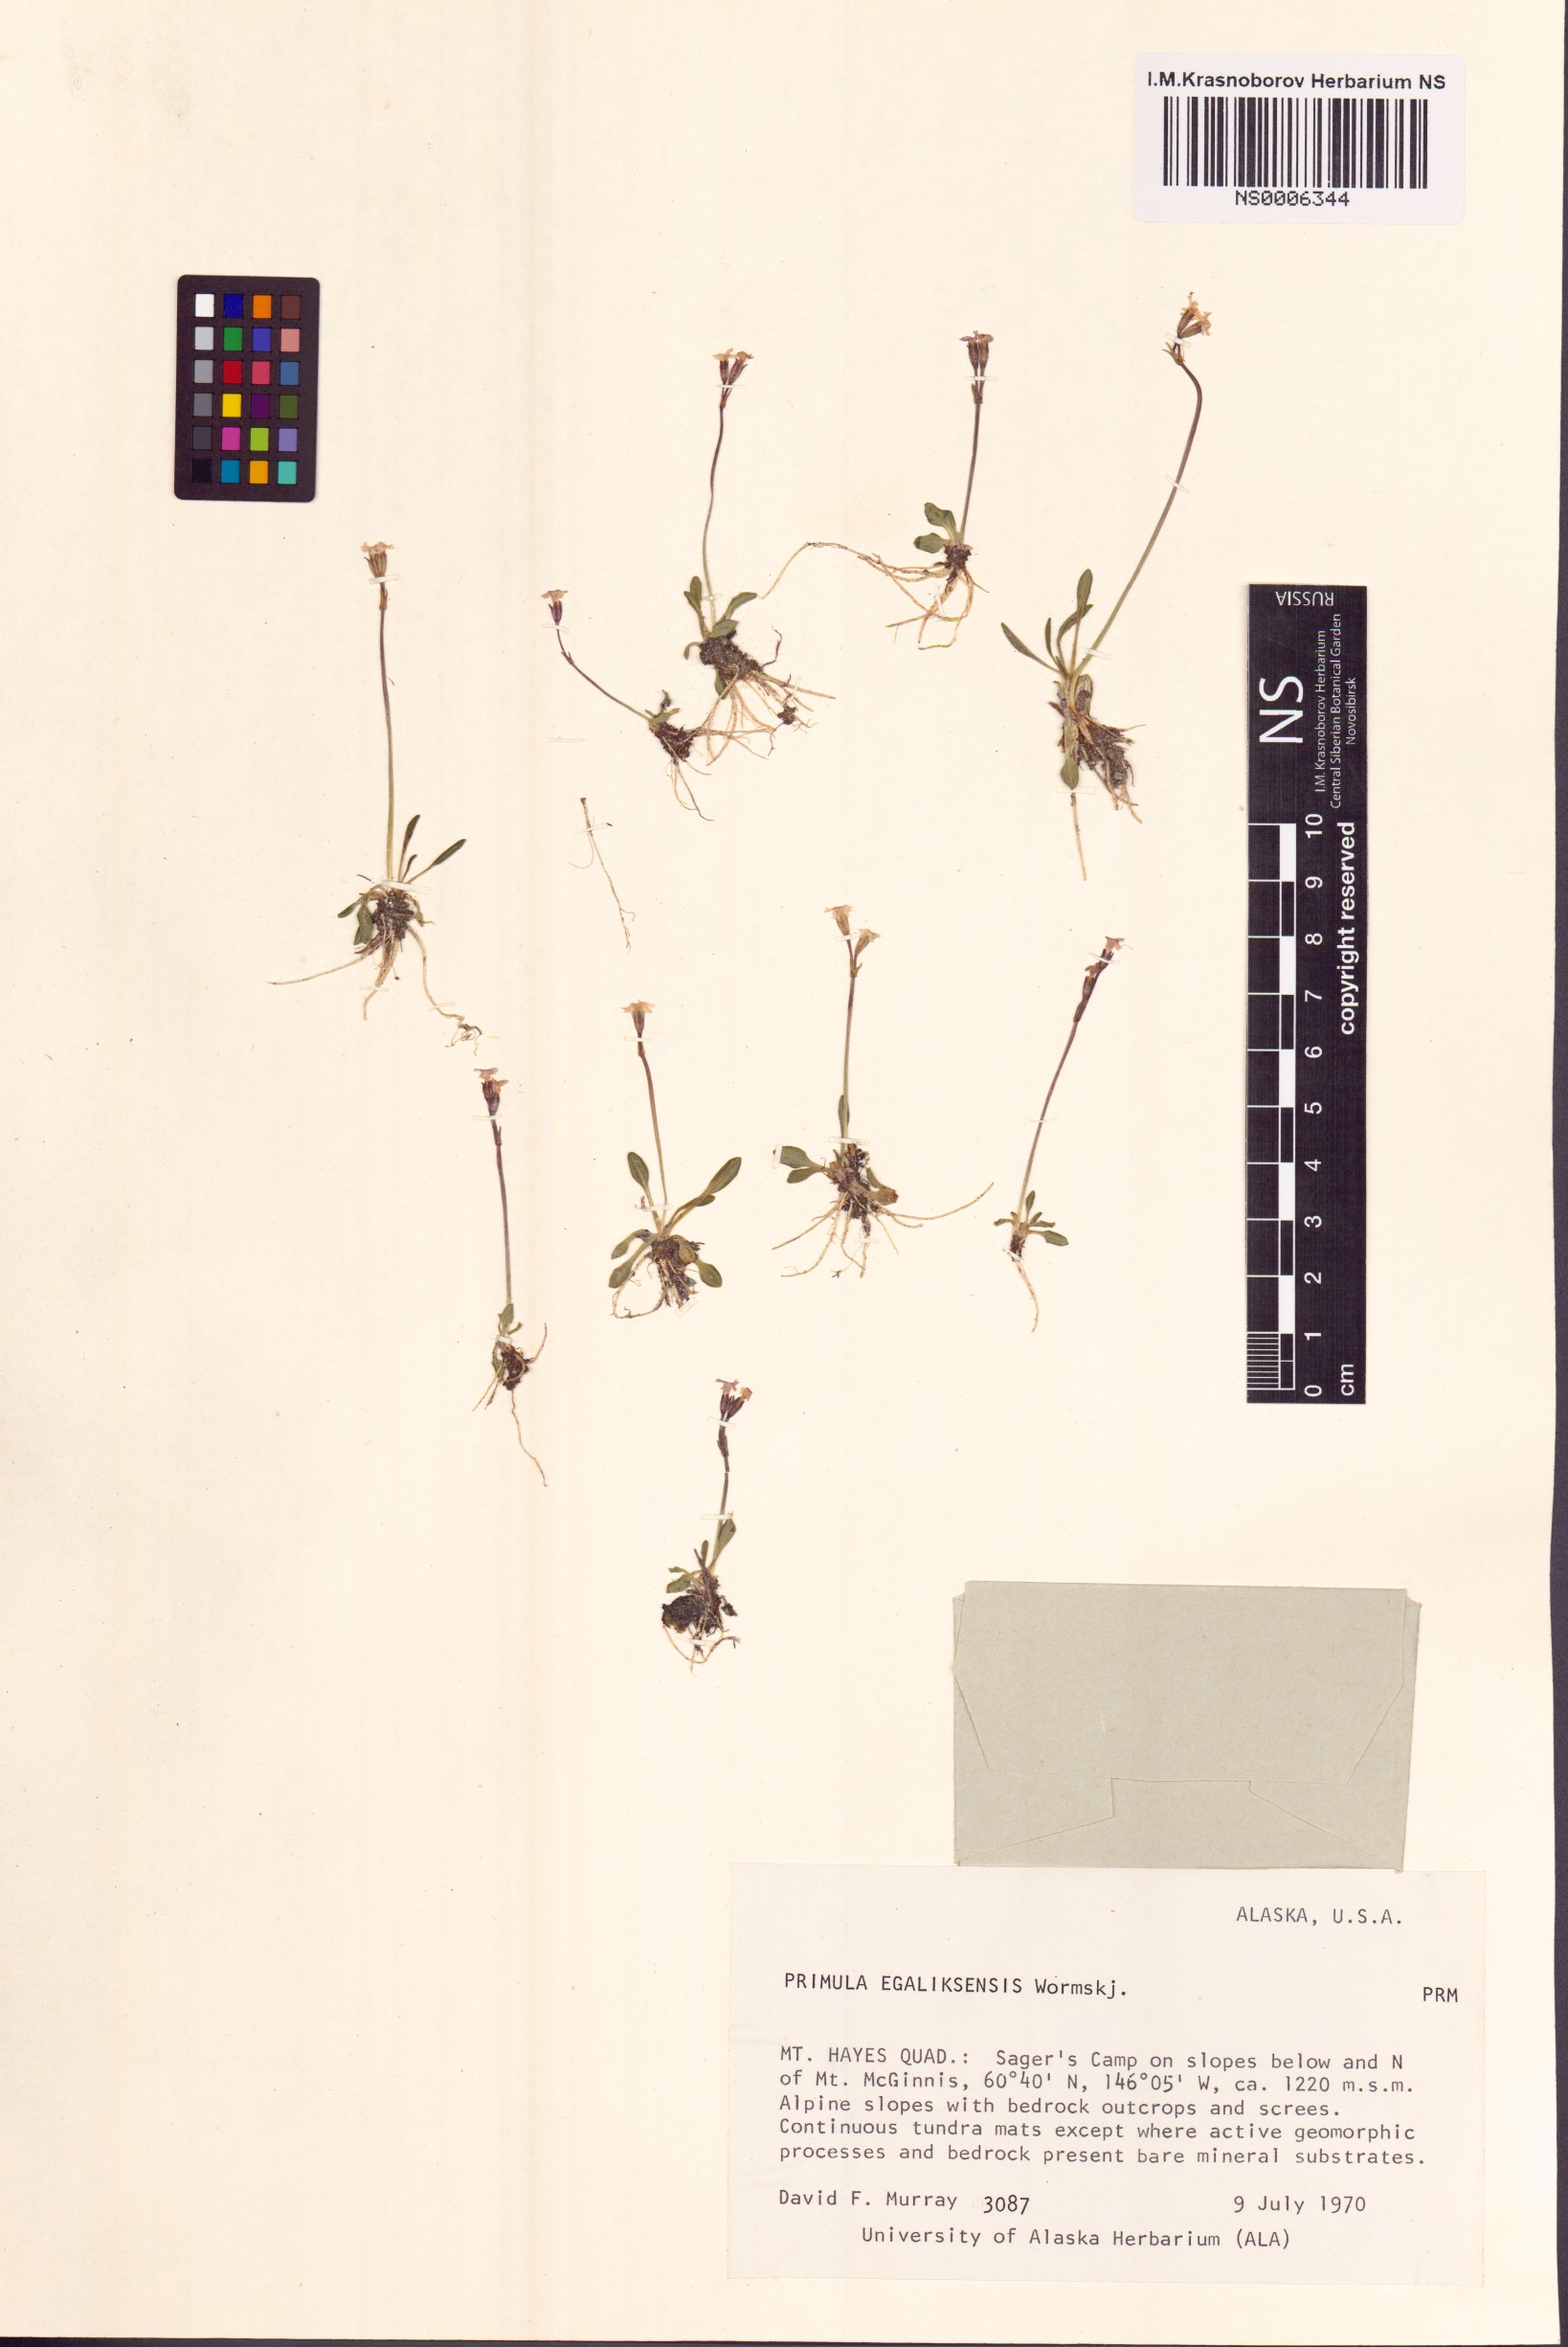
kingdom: Plantae
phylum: Tracheophyta
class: Magnoliopsida
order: Ericales
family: Primulaceae
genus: Primula
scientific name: Primula egaliksensis
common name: Greenland primrose
